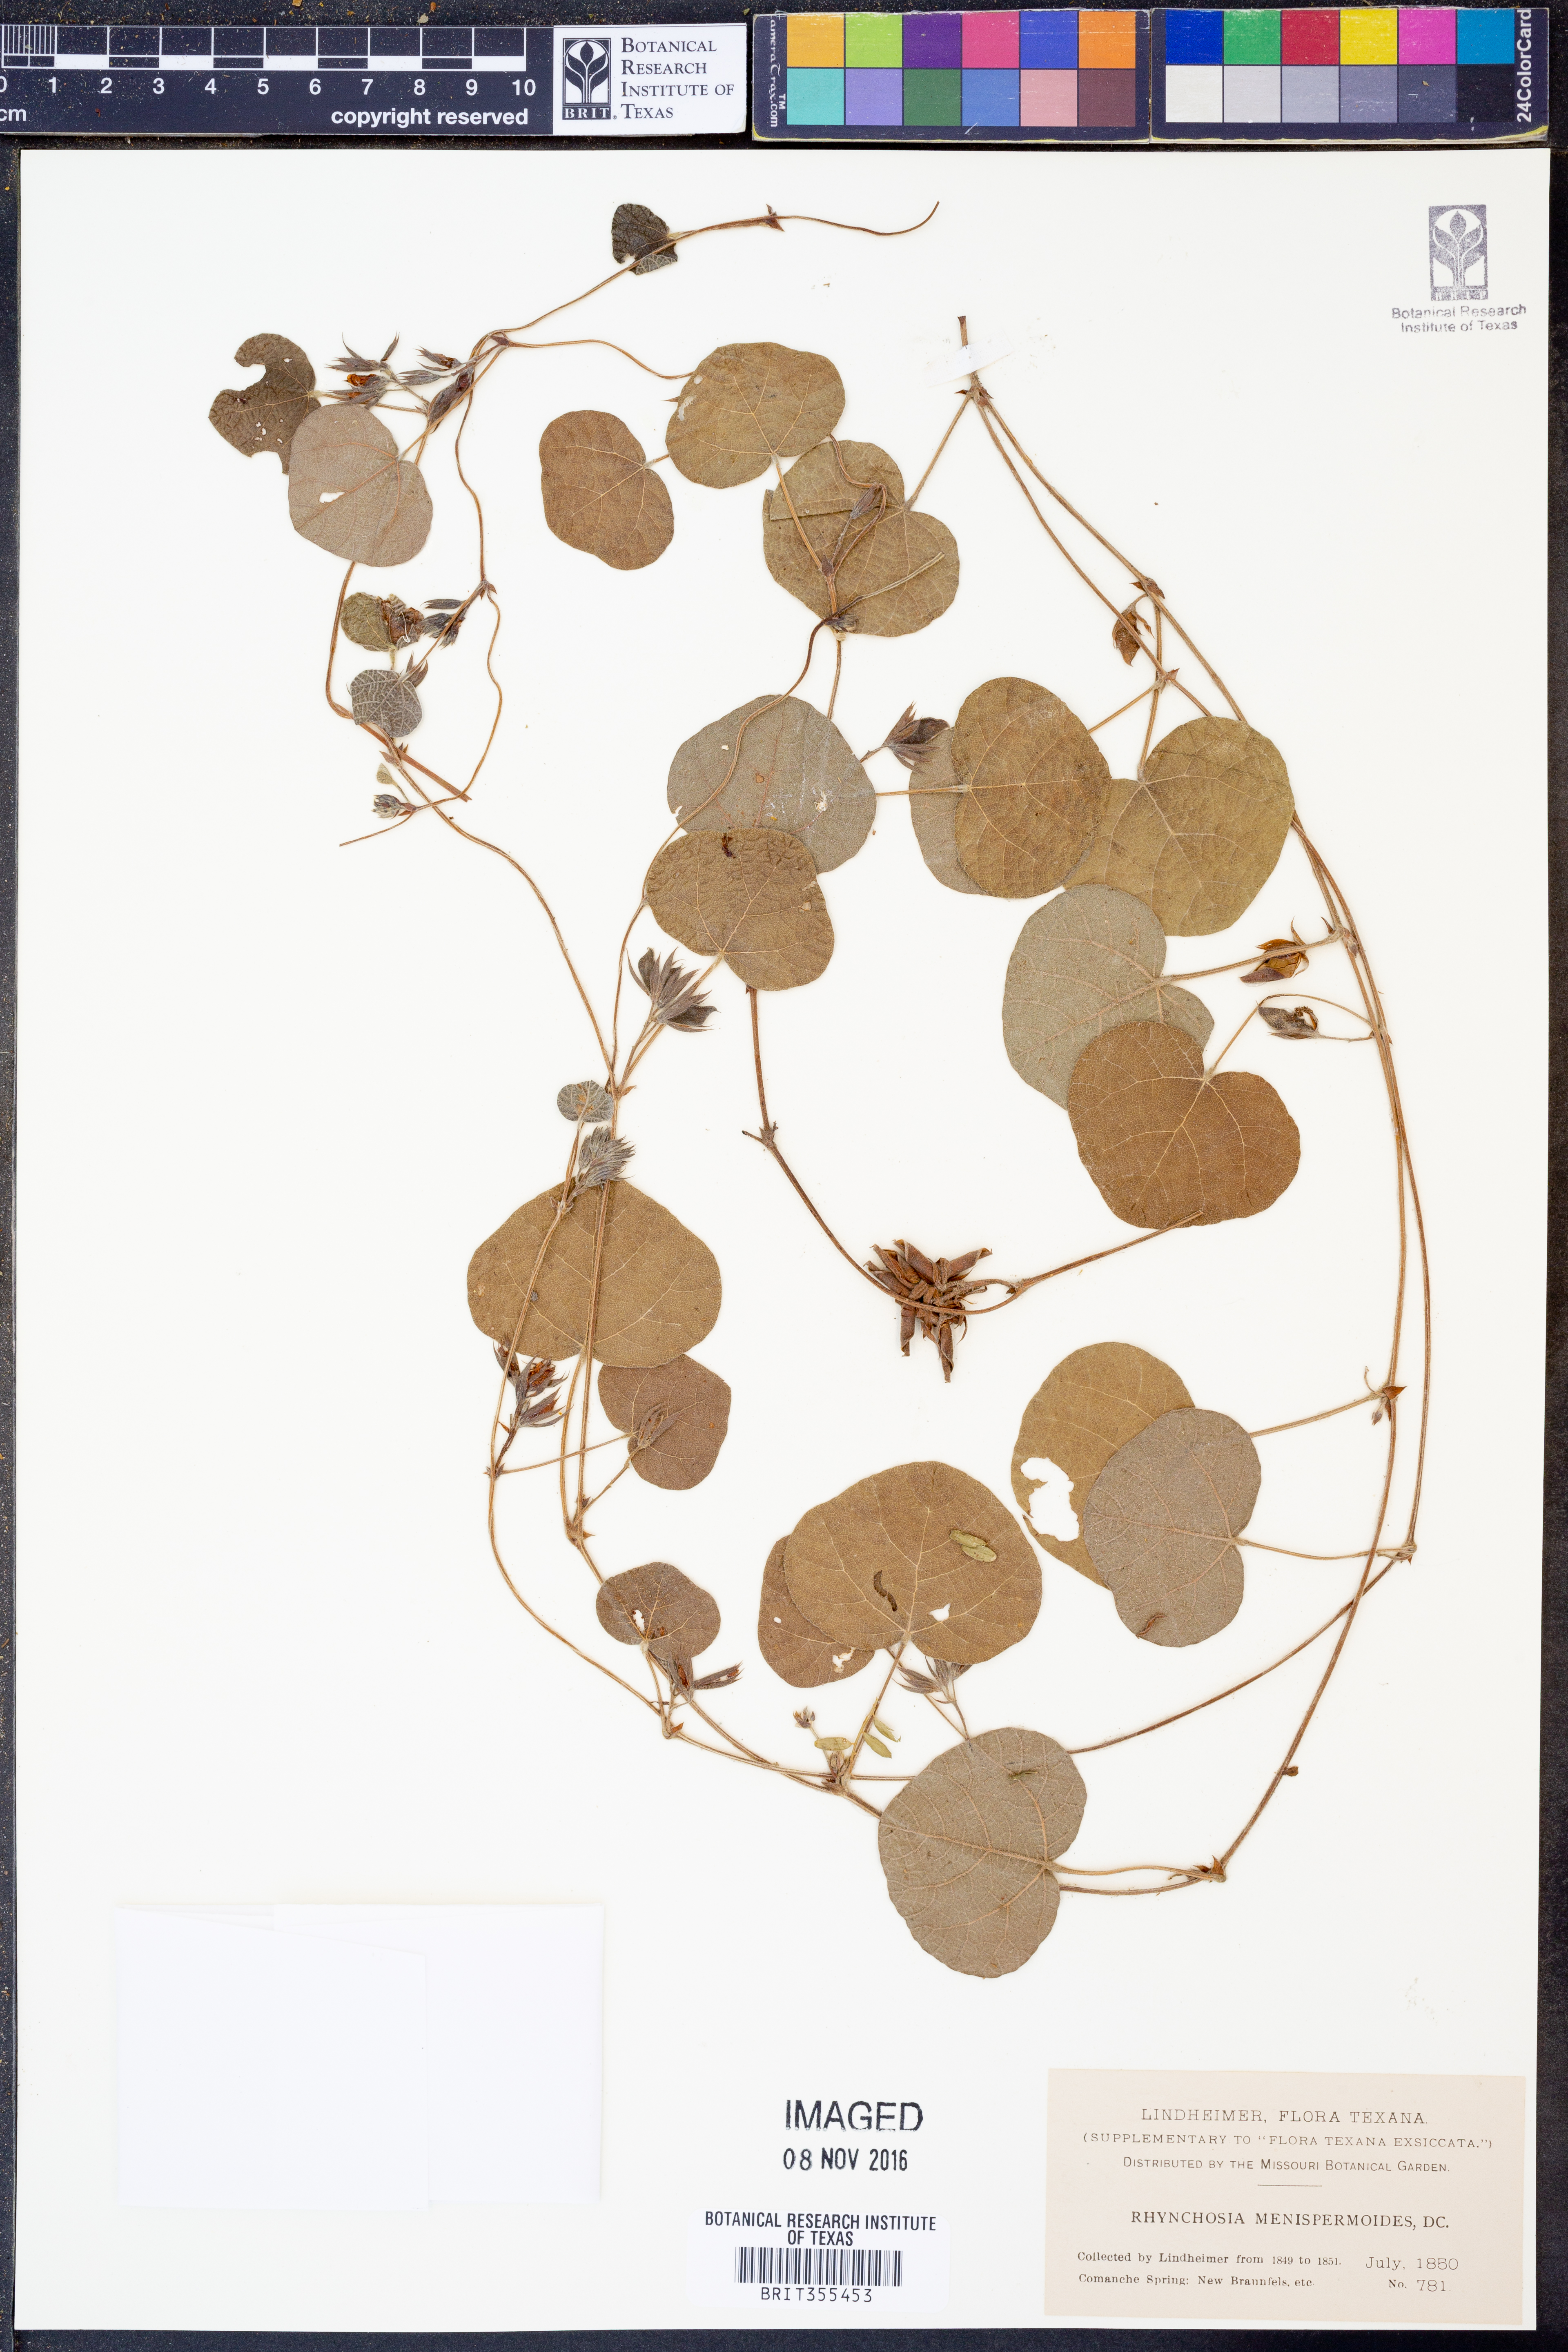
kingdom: Plantae
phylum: Tracheophyta
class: Magnoliopsida
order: Fabales
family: Fabaceae
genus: Rhynchosia
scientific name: Rhynchosia americana
